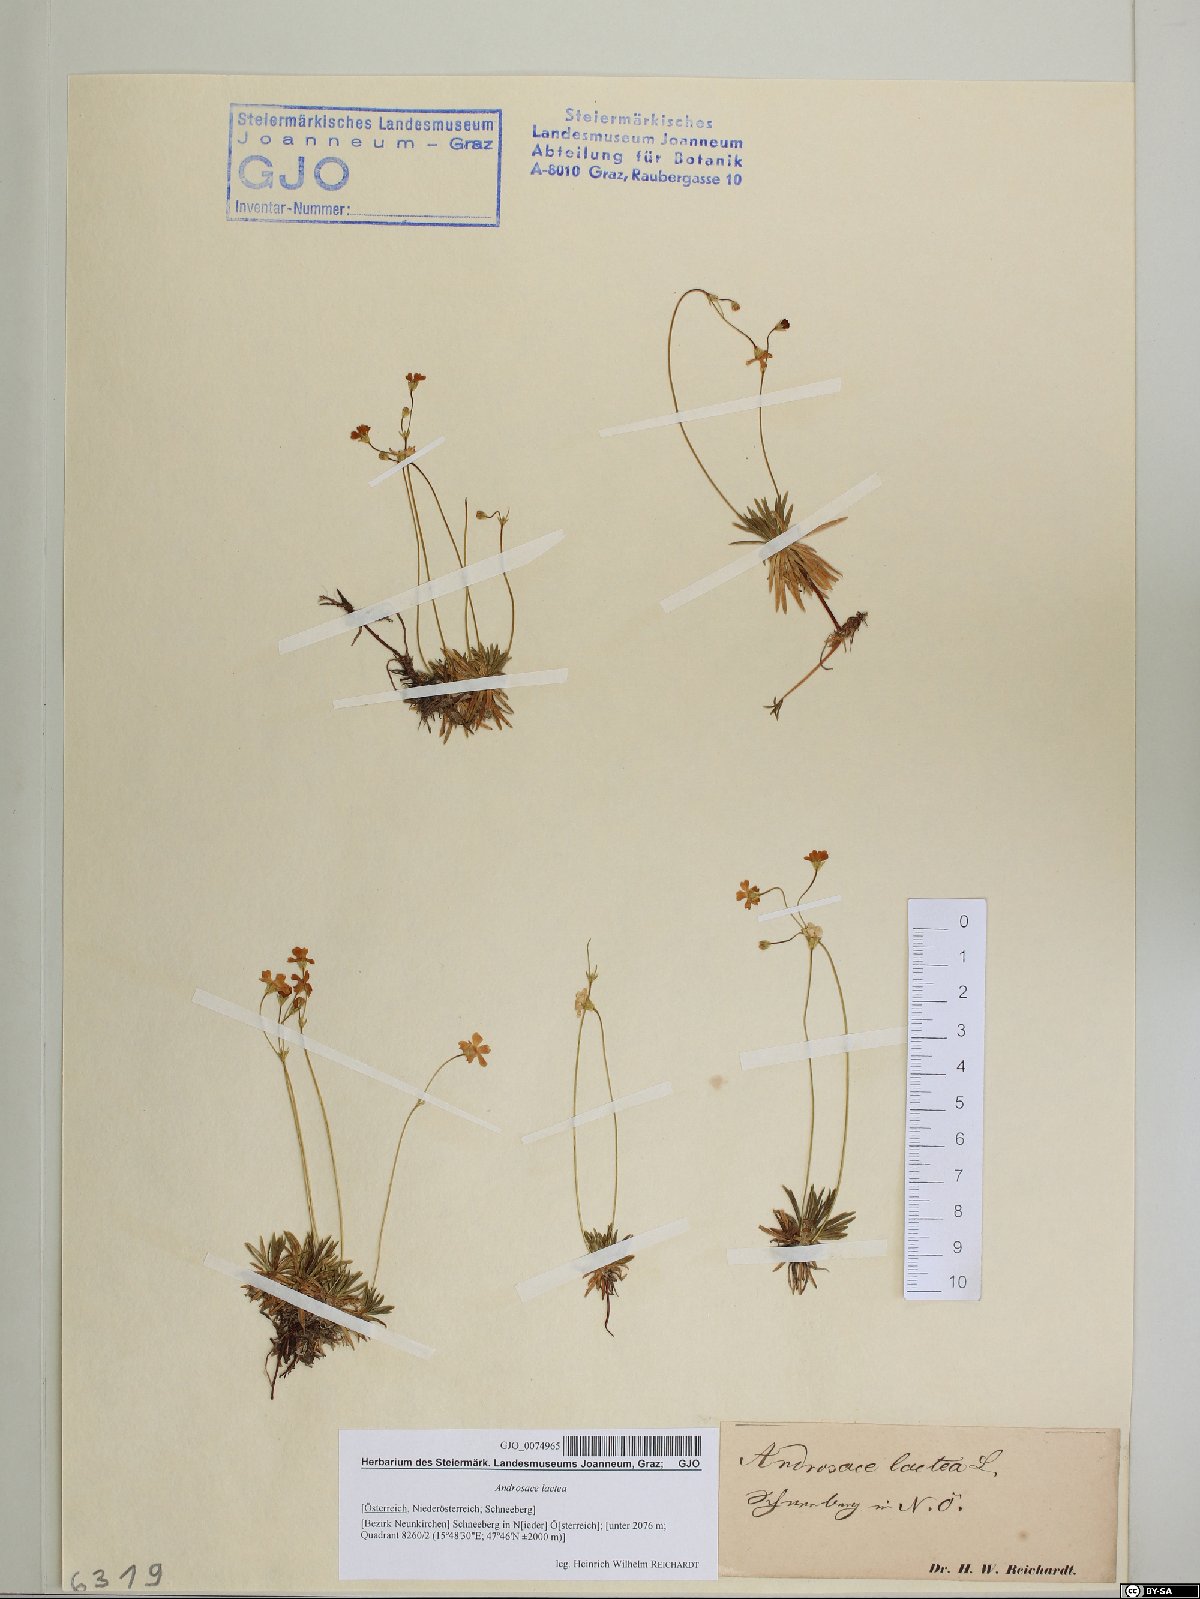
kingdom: Plantae
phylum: Tracheophyta
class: Magnoliopsida
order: Ericales
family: Primulaceae
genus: Androsace
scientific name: Androsace lactea
